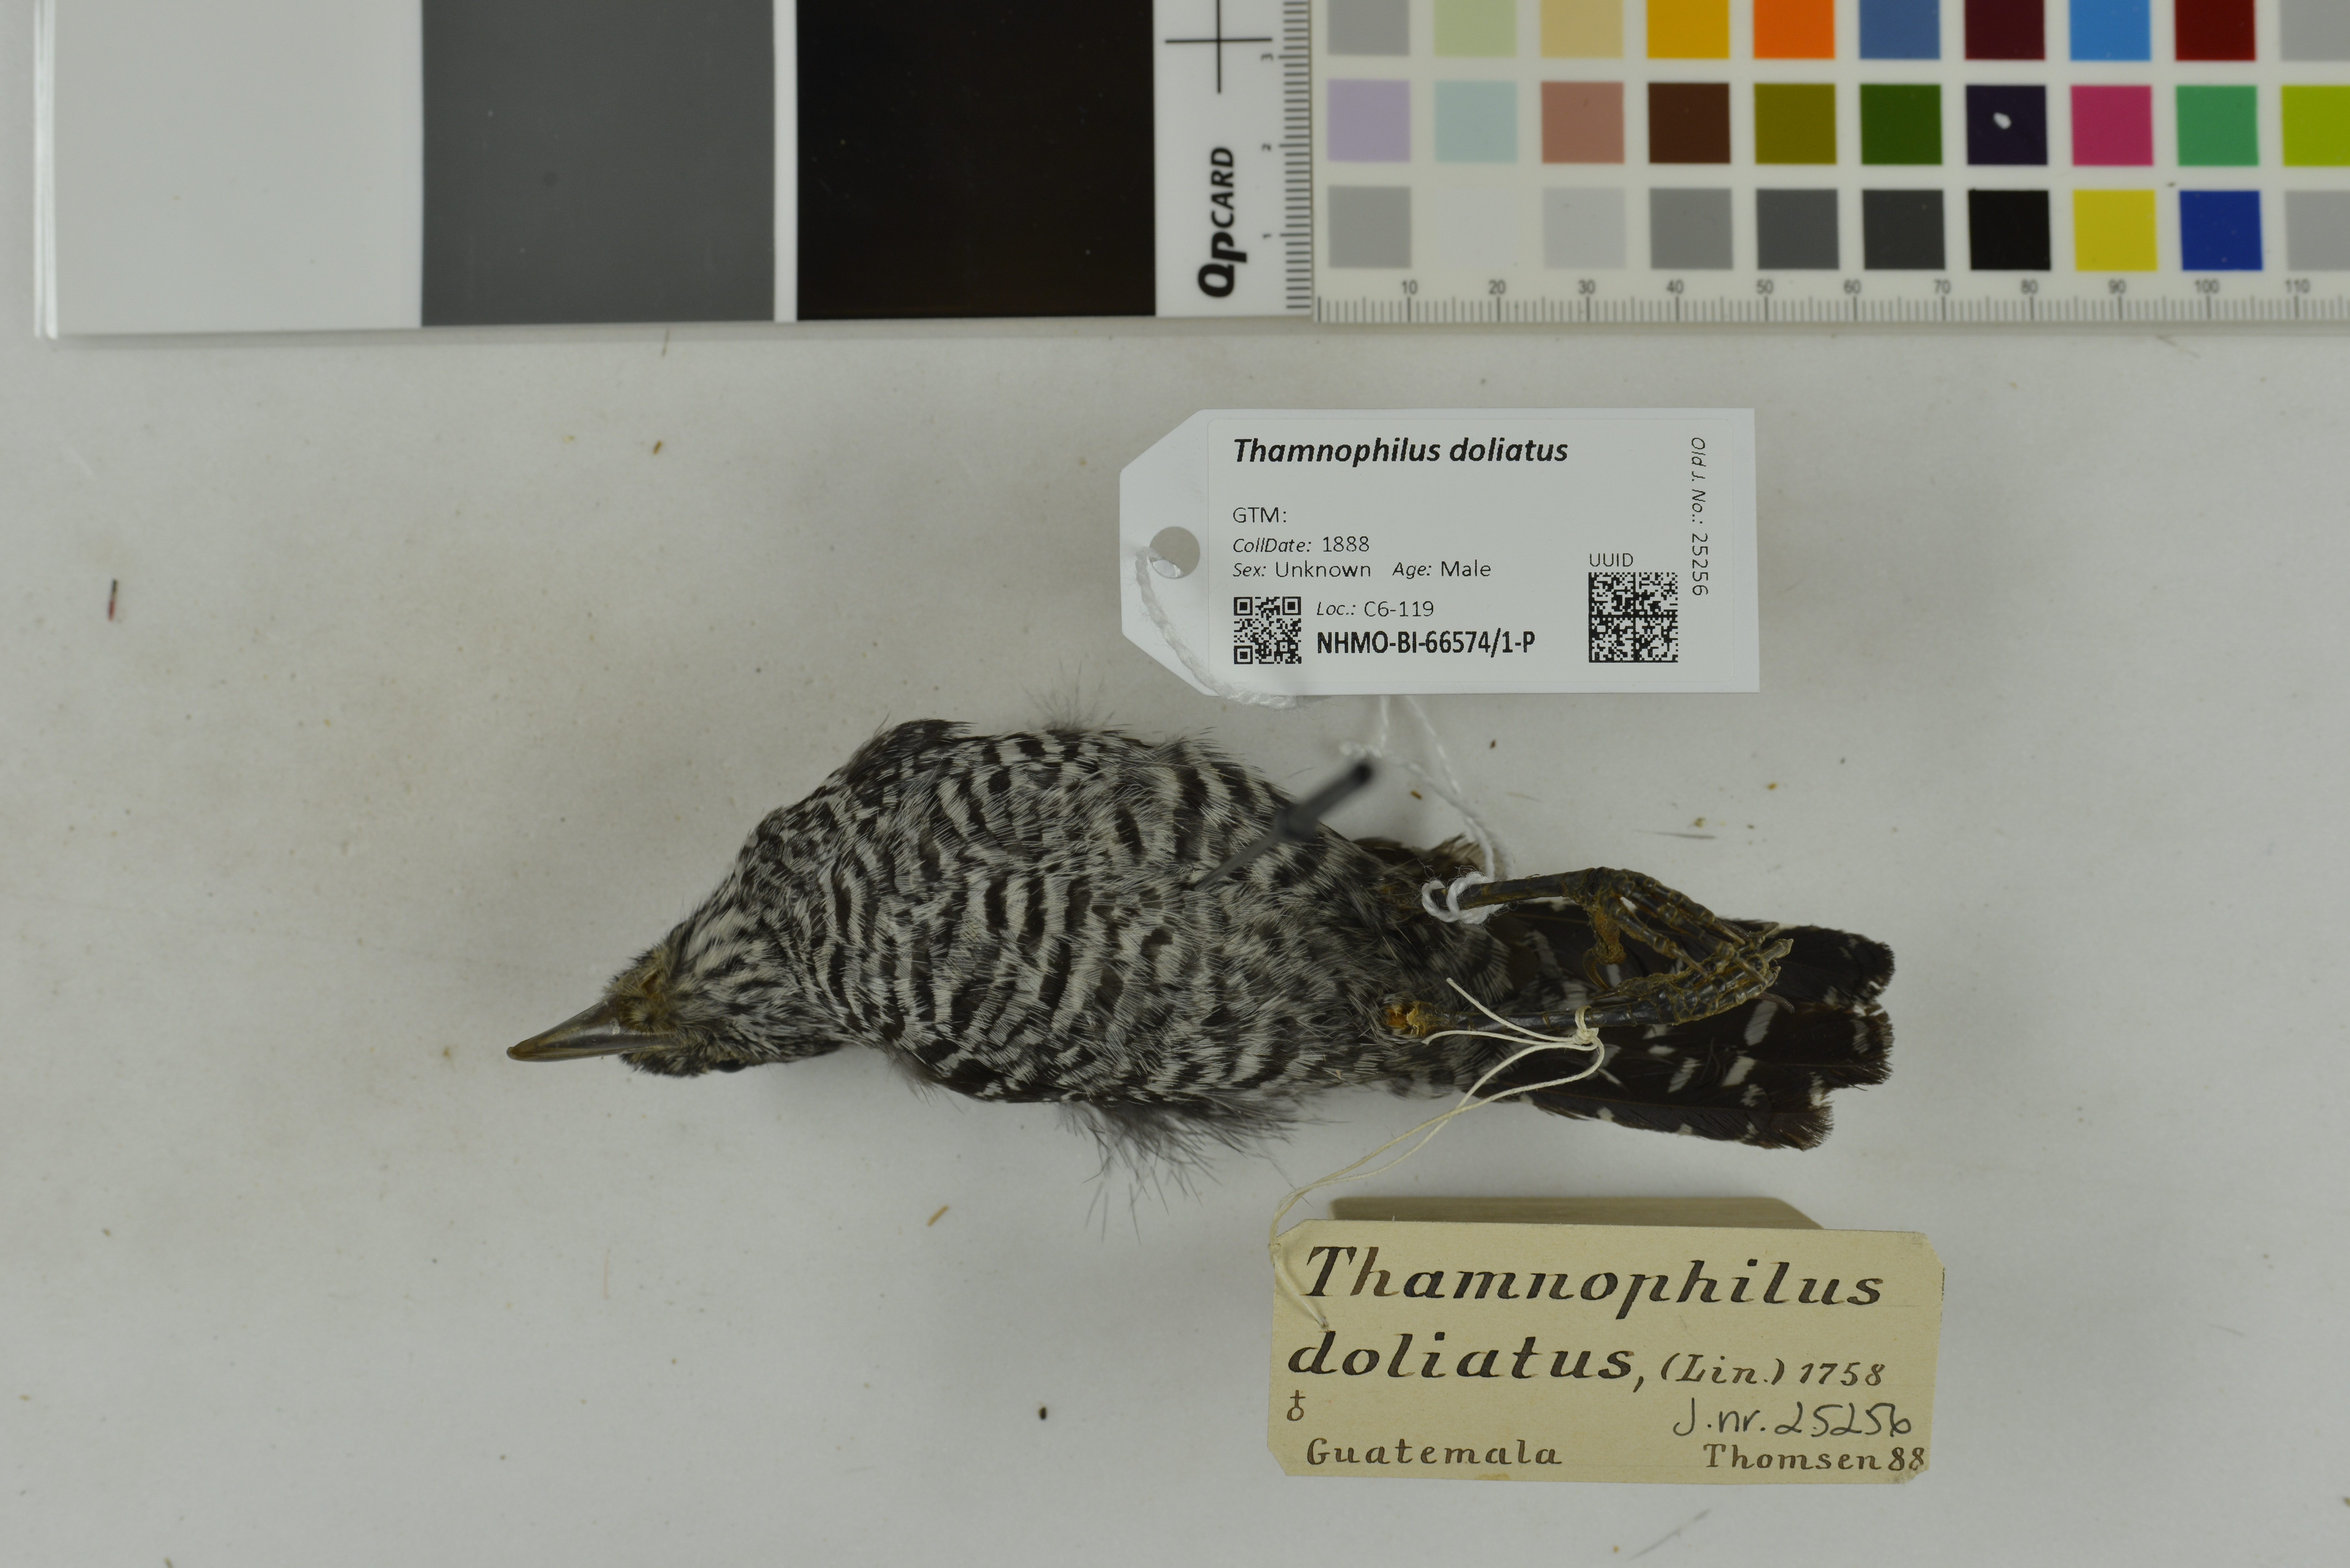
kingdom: Animalia
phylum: Chordata
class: Aves
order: Passeriformes
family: Thamnophilidae
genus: Thamnophilus
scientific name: Thamnophilus doliatus
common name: Barred antshrike
